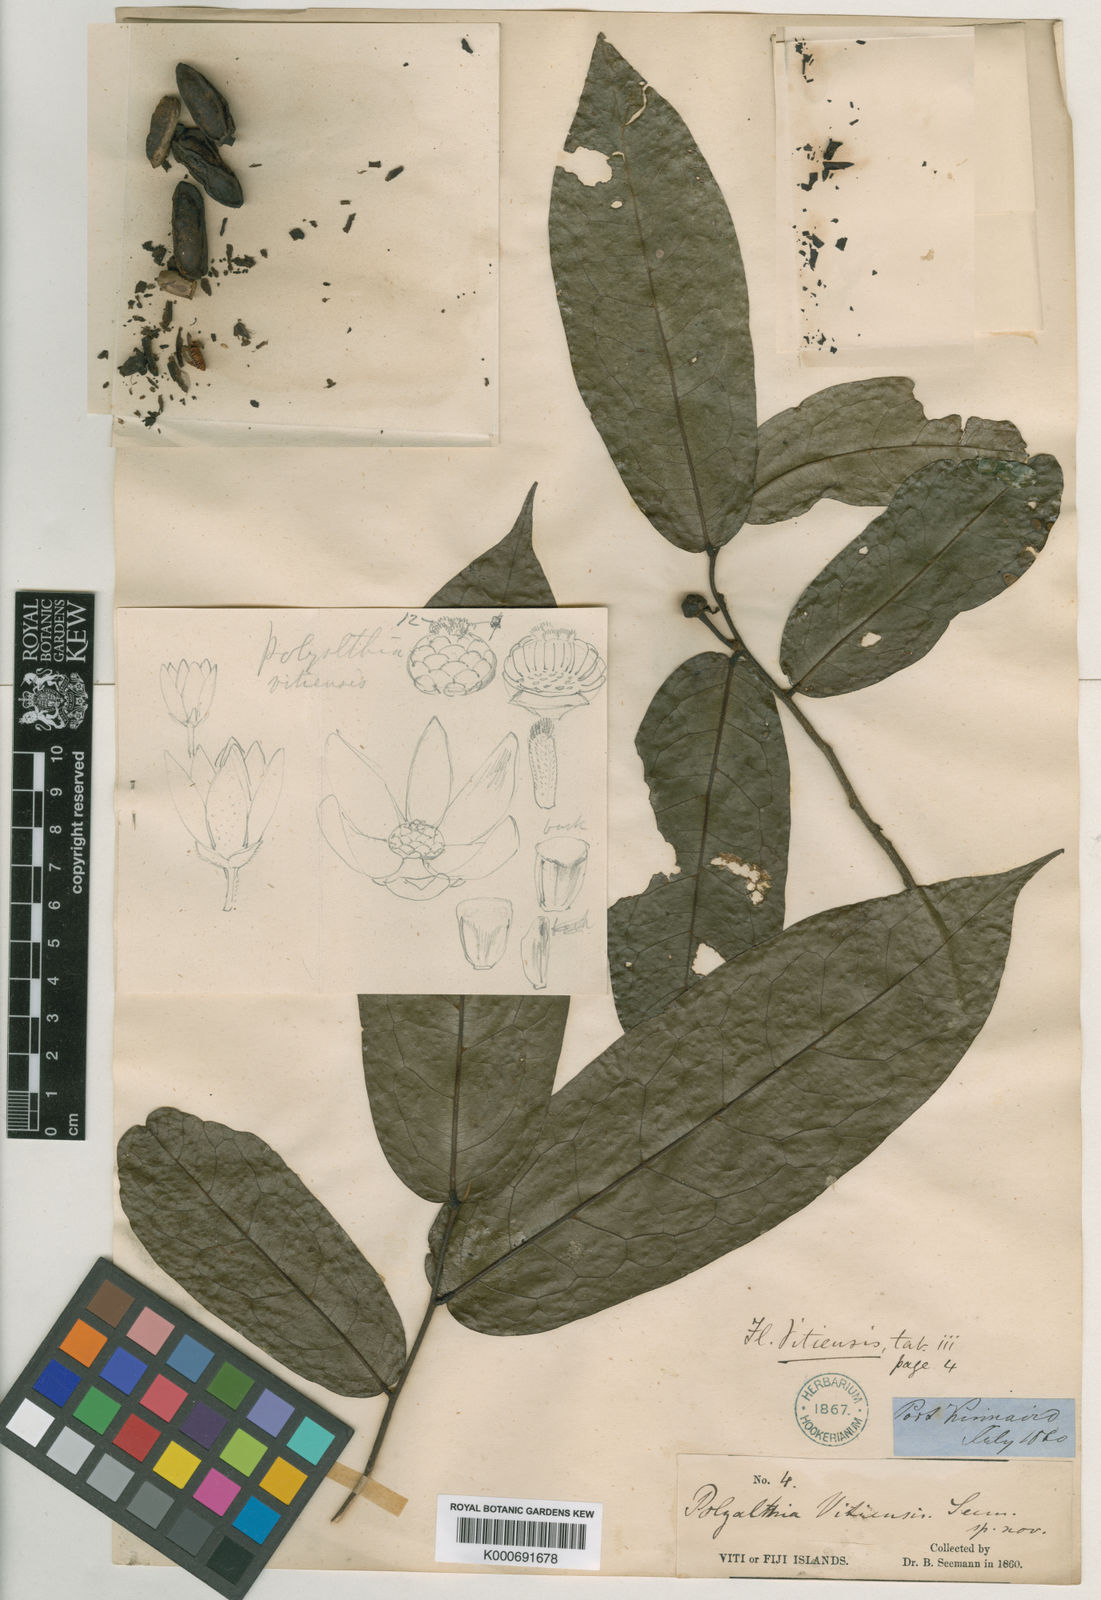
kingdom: Plantae
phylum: Tracheophyta
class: Magnoliopsida
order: Magnoliales
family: Annonaceae
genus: Hubera
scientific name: Hubera vitiensis
